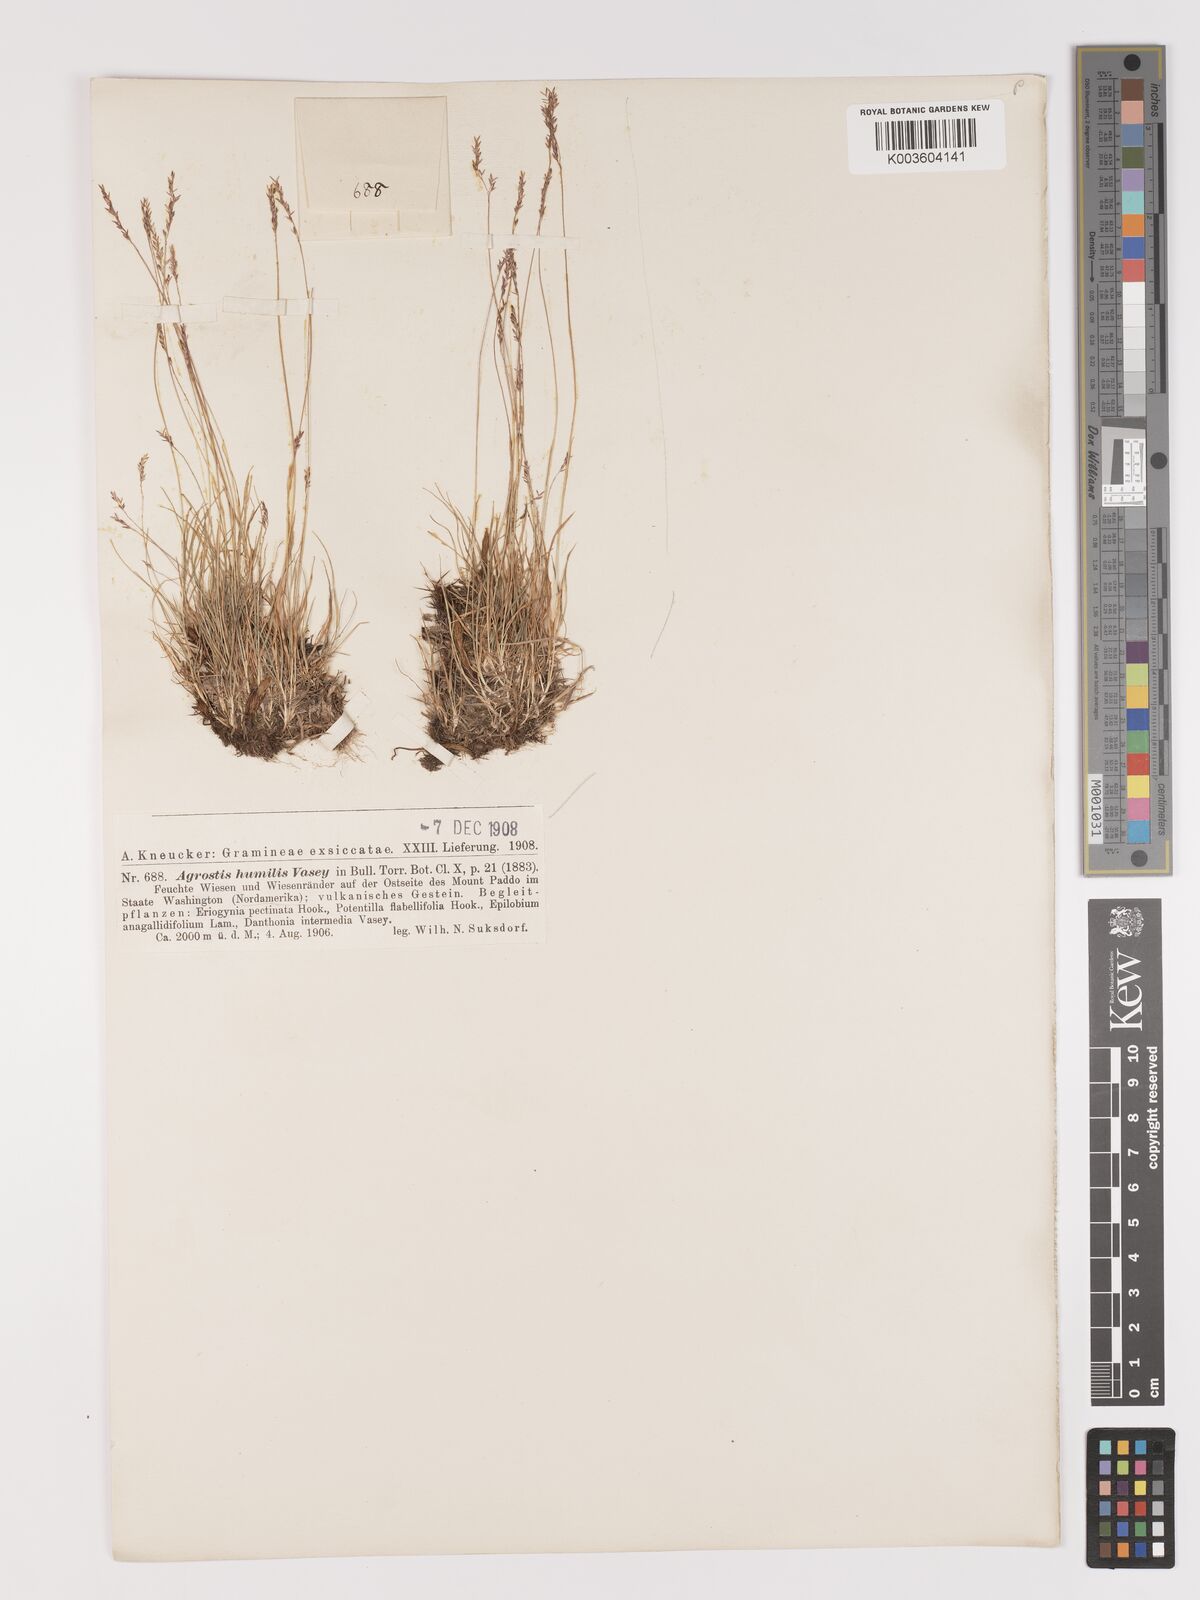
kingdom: Plantae
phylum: Tracheophyta
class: Liliopsida
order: Poales
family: Poaceae
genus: Podagrostis
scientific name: Podagrostis humilis
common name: Thurber's bentgrass
